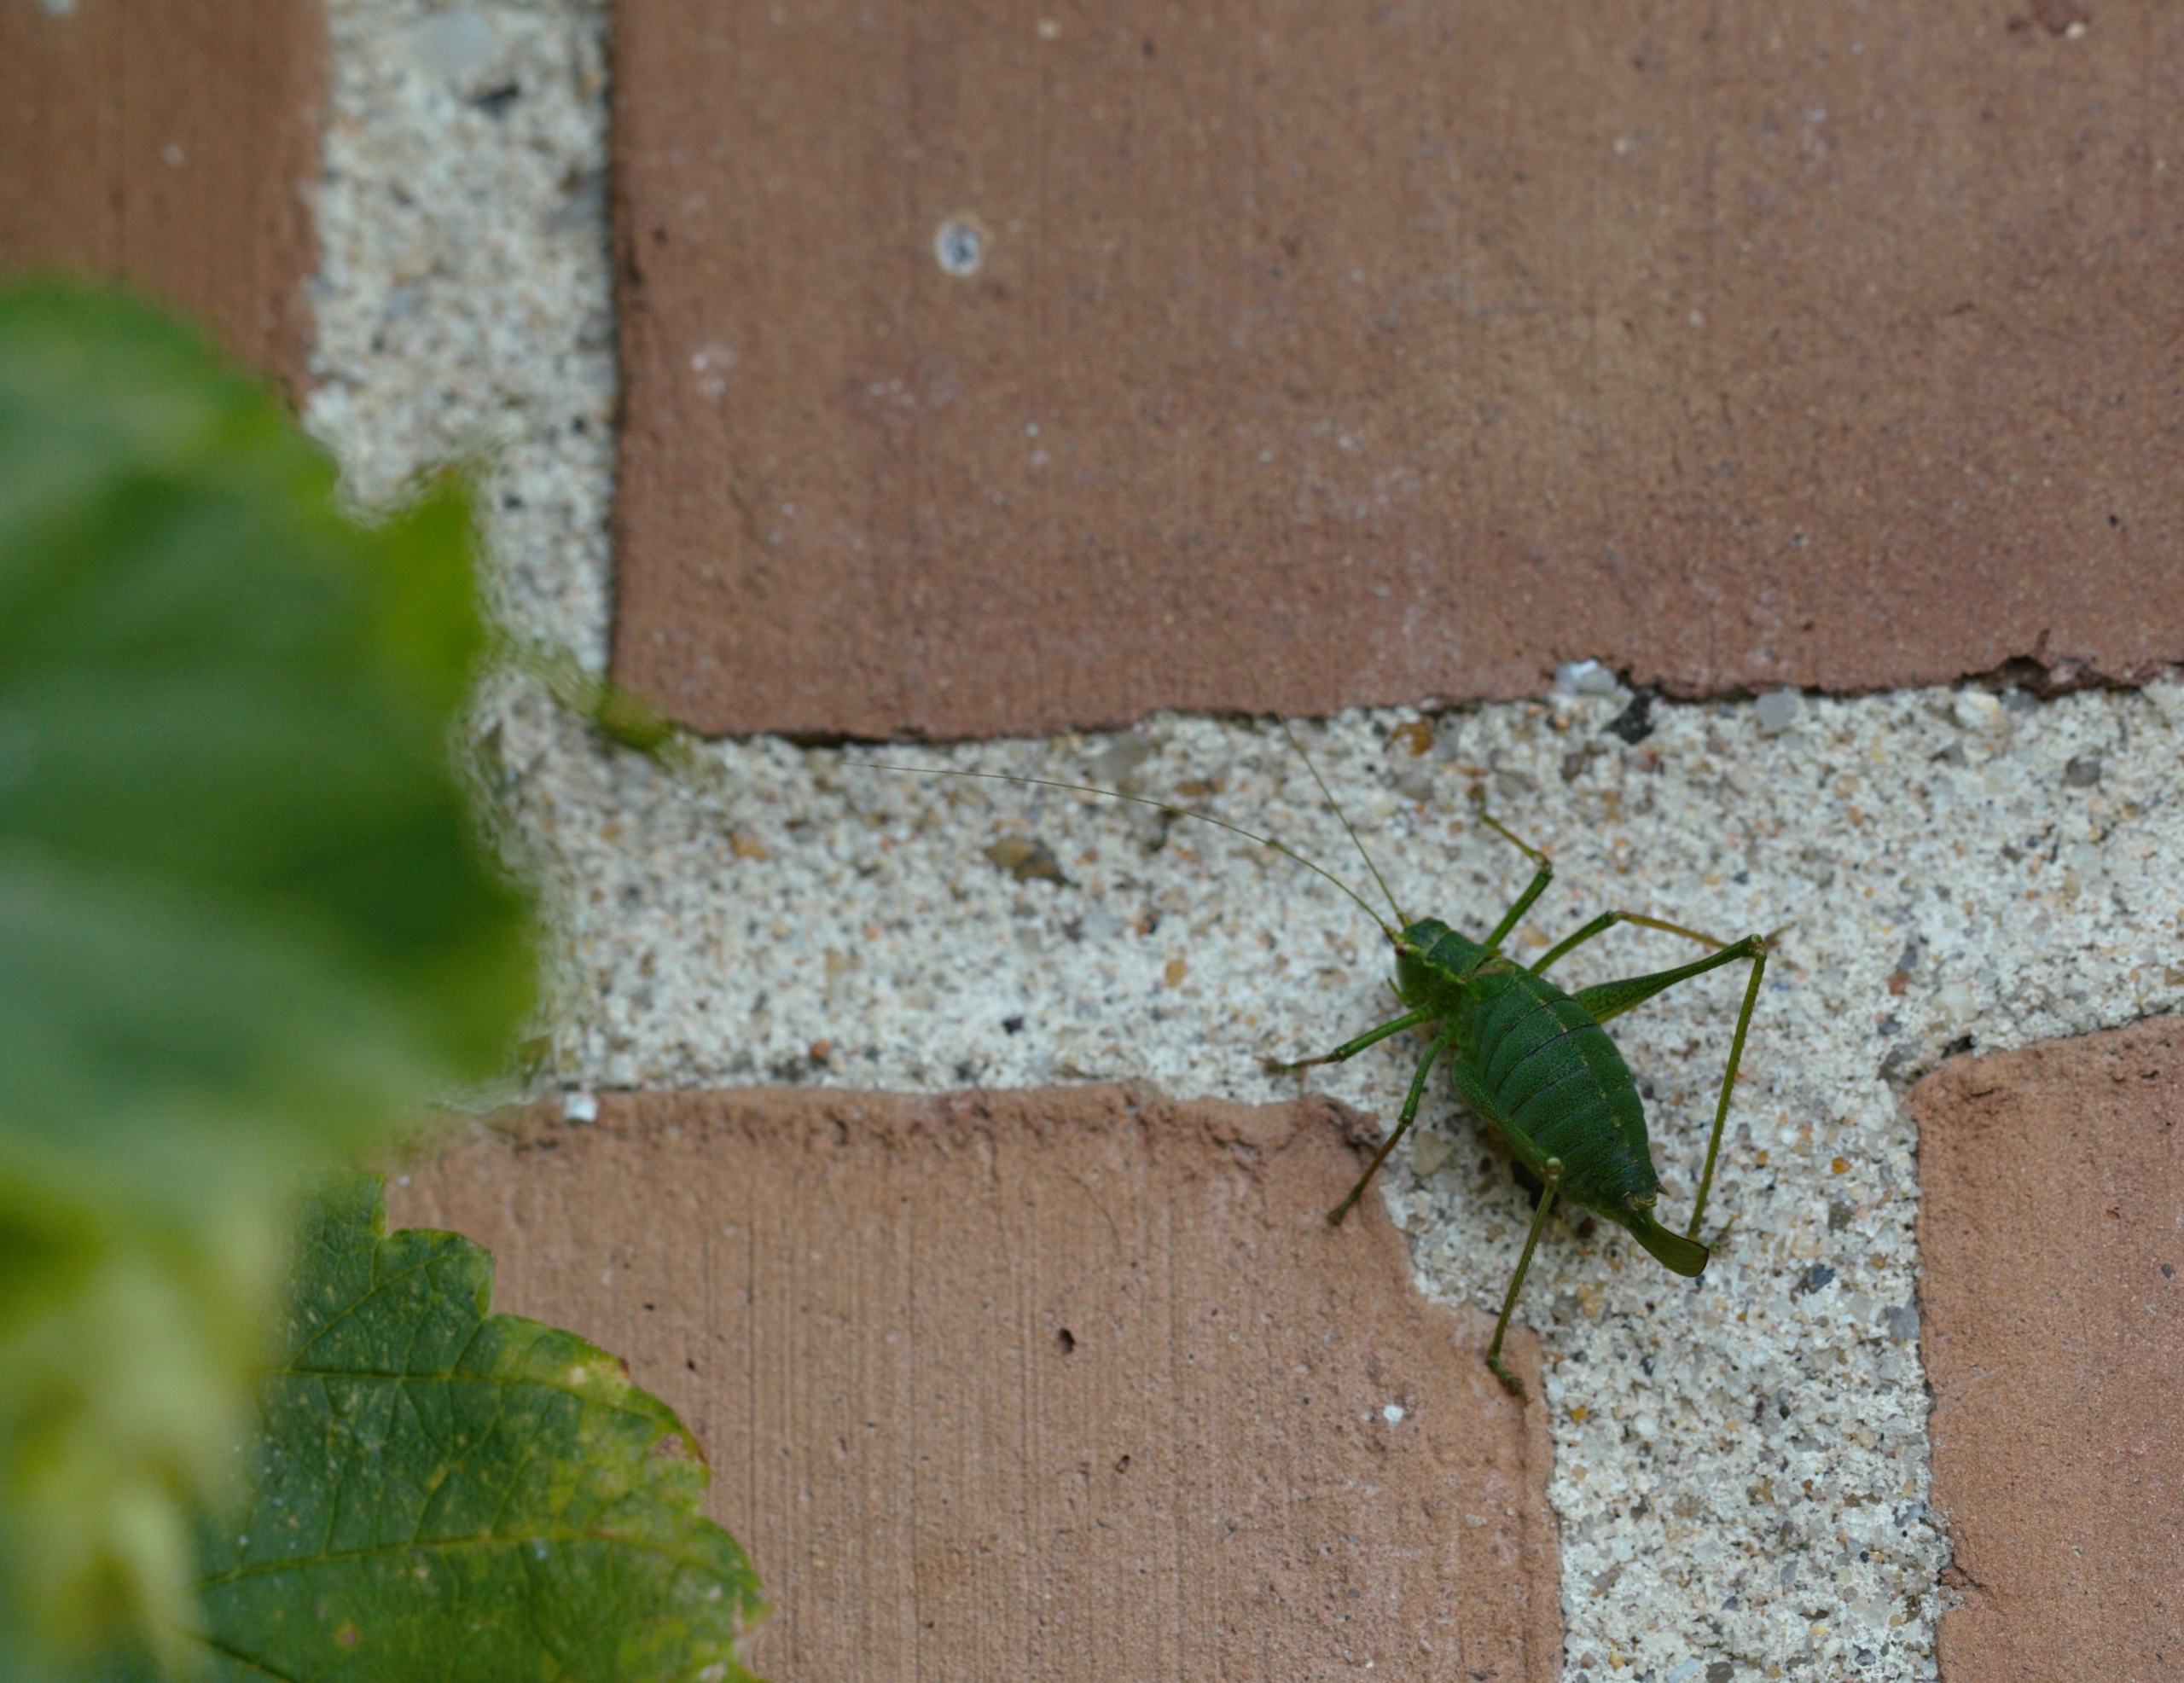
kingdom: Animalia
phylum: Arthropoda
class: Insecta
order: Orthoptera
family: Tettigoniidae
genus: Leptophyes
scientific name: Leptophyes punctatissima
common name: Krumknivgræshoppe
